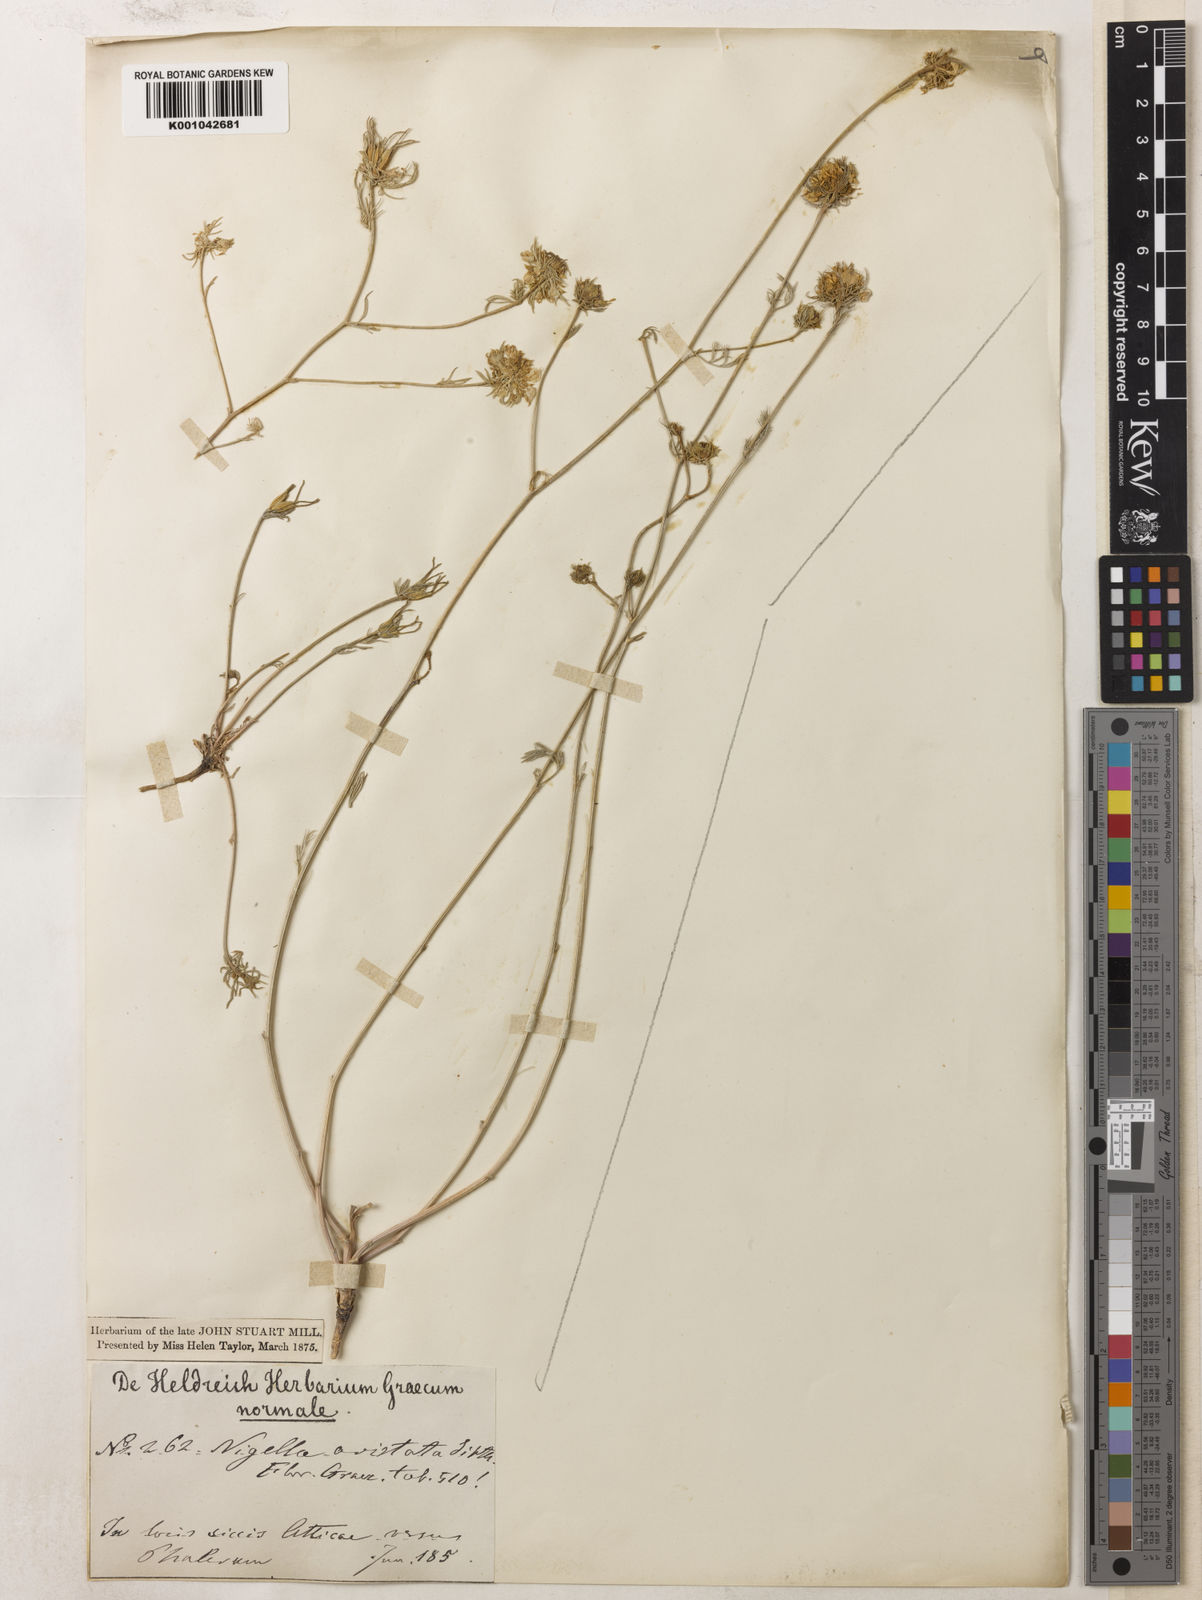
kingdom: Plantae
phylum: Tracheophyta
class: Magnoliopsida
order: Ranunculales
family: Ranunculaceae
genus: Nigella
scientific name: Nigella arvensis
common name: Wild fennel-flower
